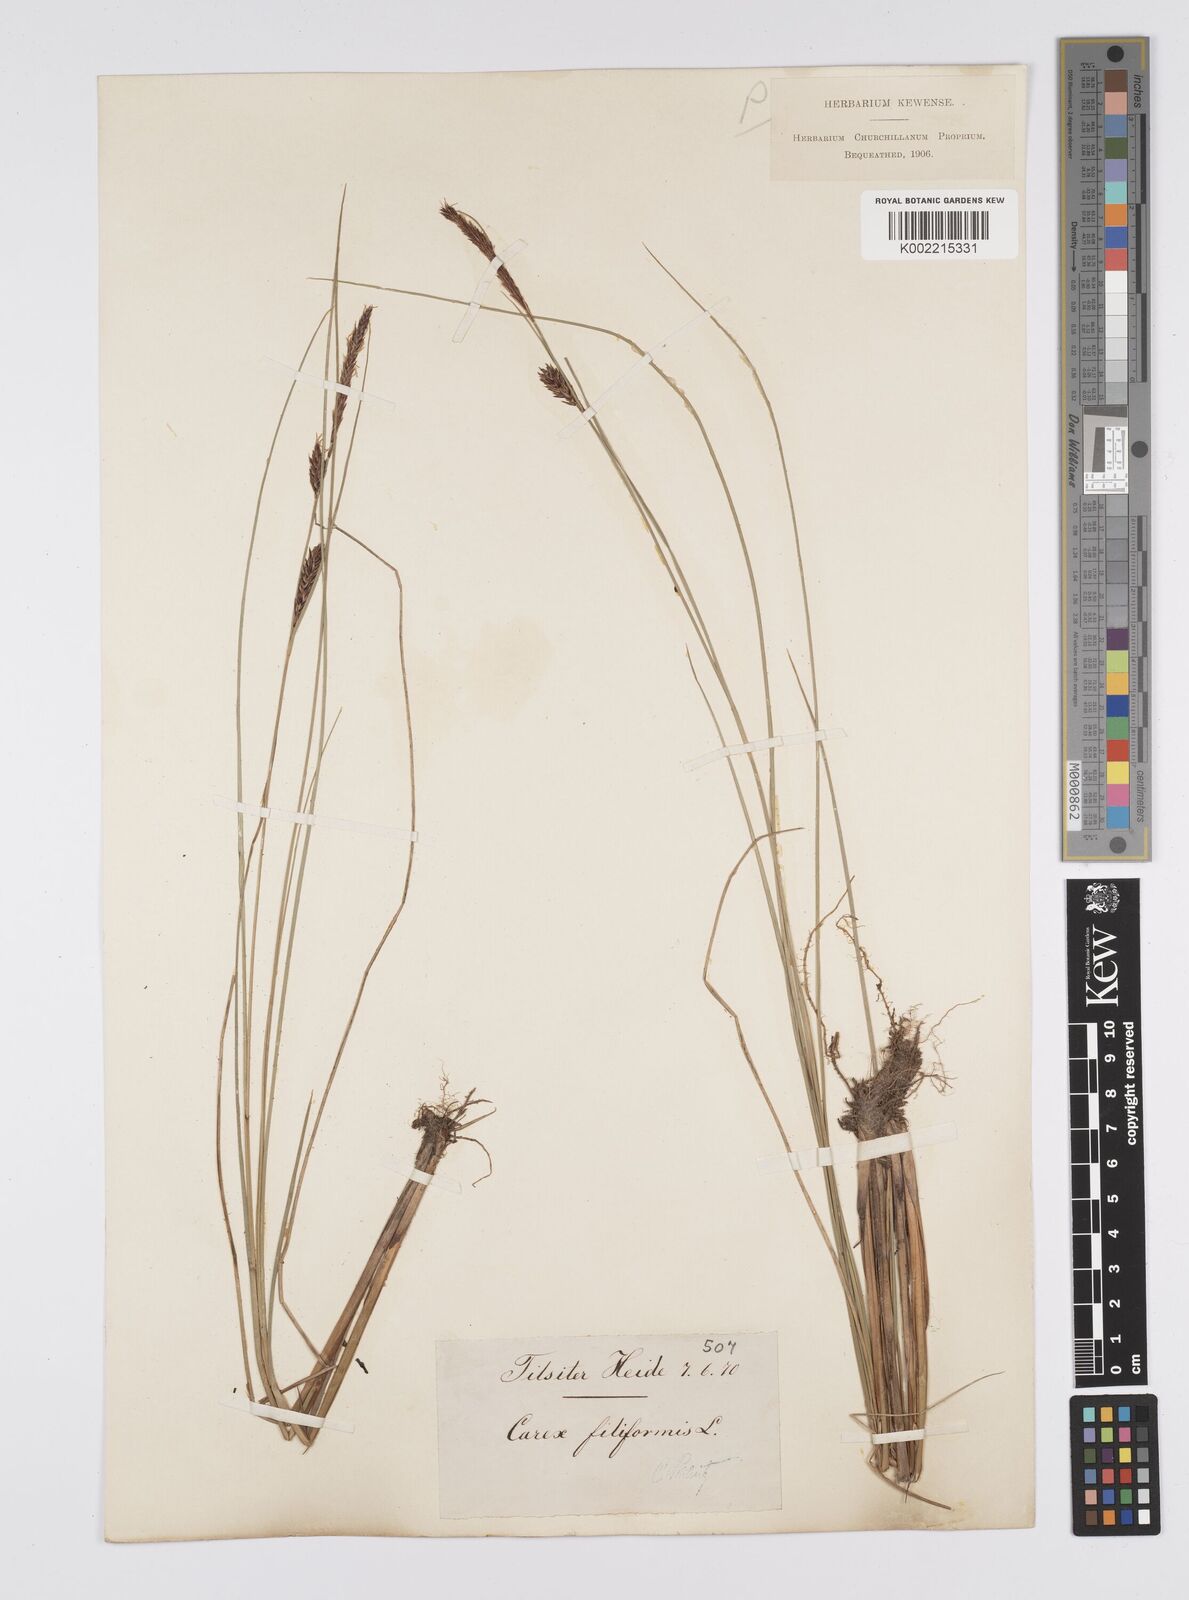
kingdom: Plantae
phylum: Tracheophyta
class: Liliopsida
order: Poales
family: Cyperaceae
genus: Carex
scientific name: Carex lasiocarpa
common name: Slender sedge
